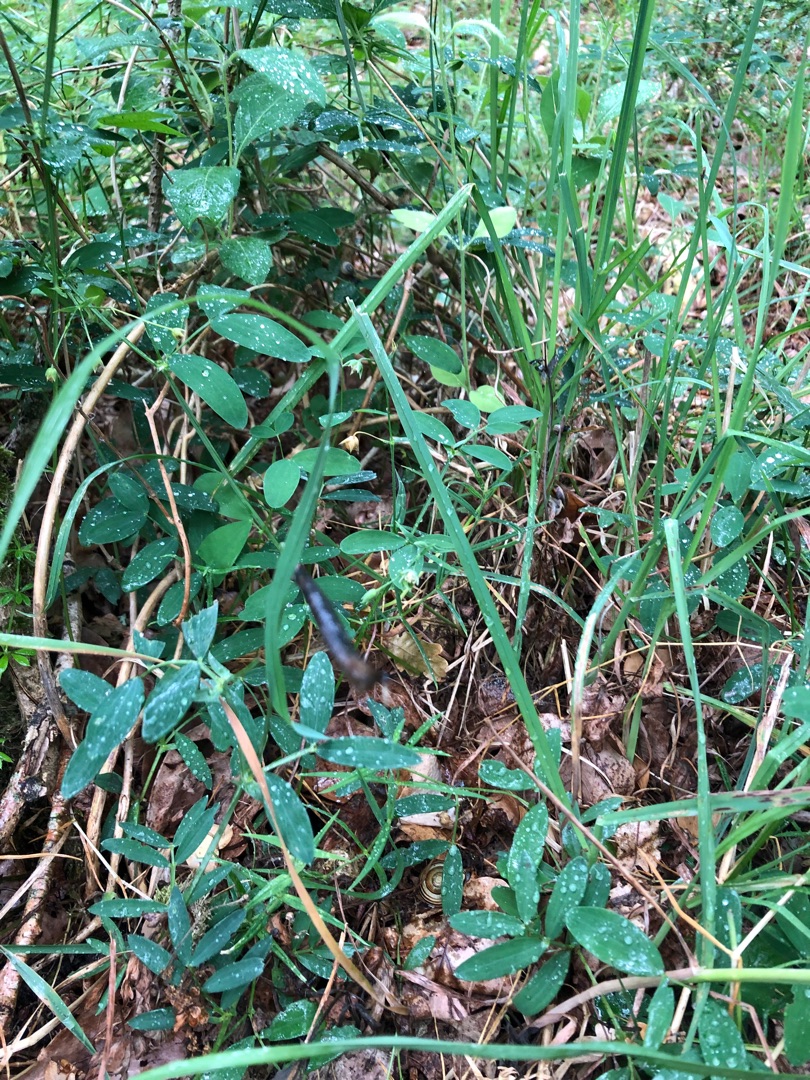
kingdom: Plantae
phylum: Tracheophyta
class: Magnoliopsida
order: Fabales
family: Fabaceae
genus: Lathyrus
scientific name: Lathyrus linifolius
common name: Krat-fladbælg
